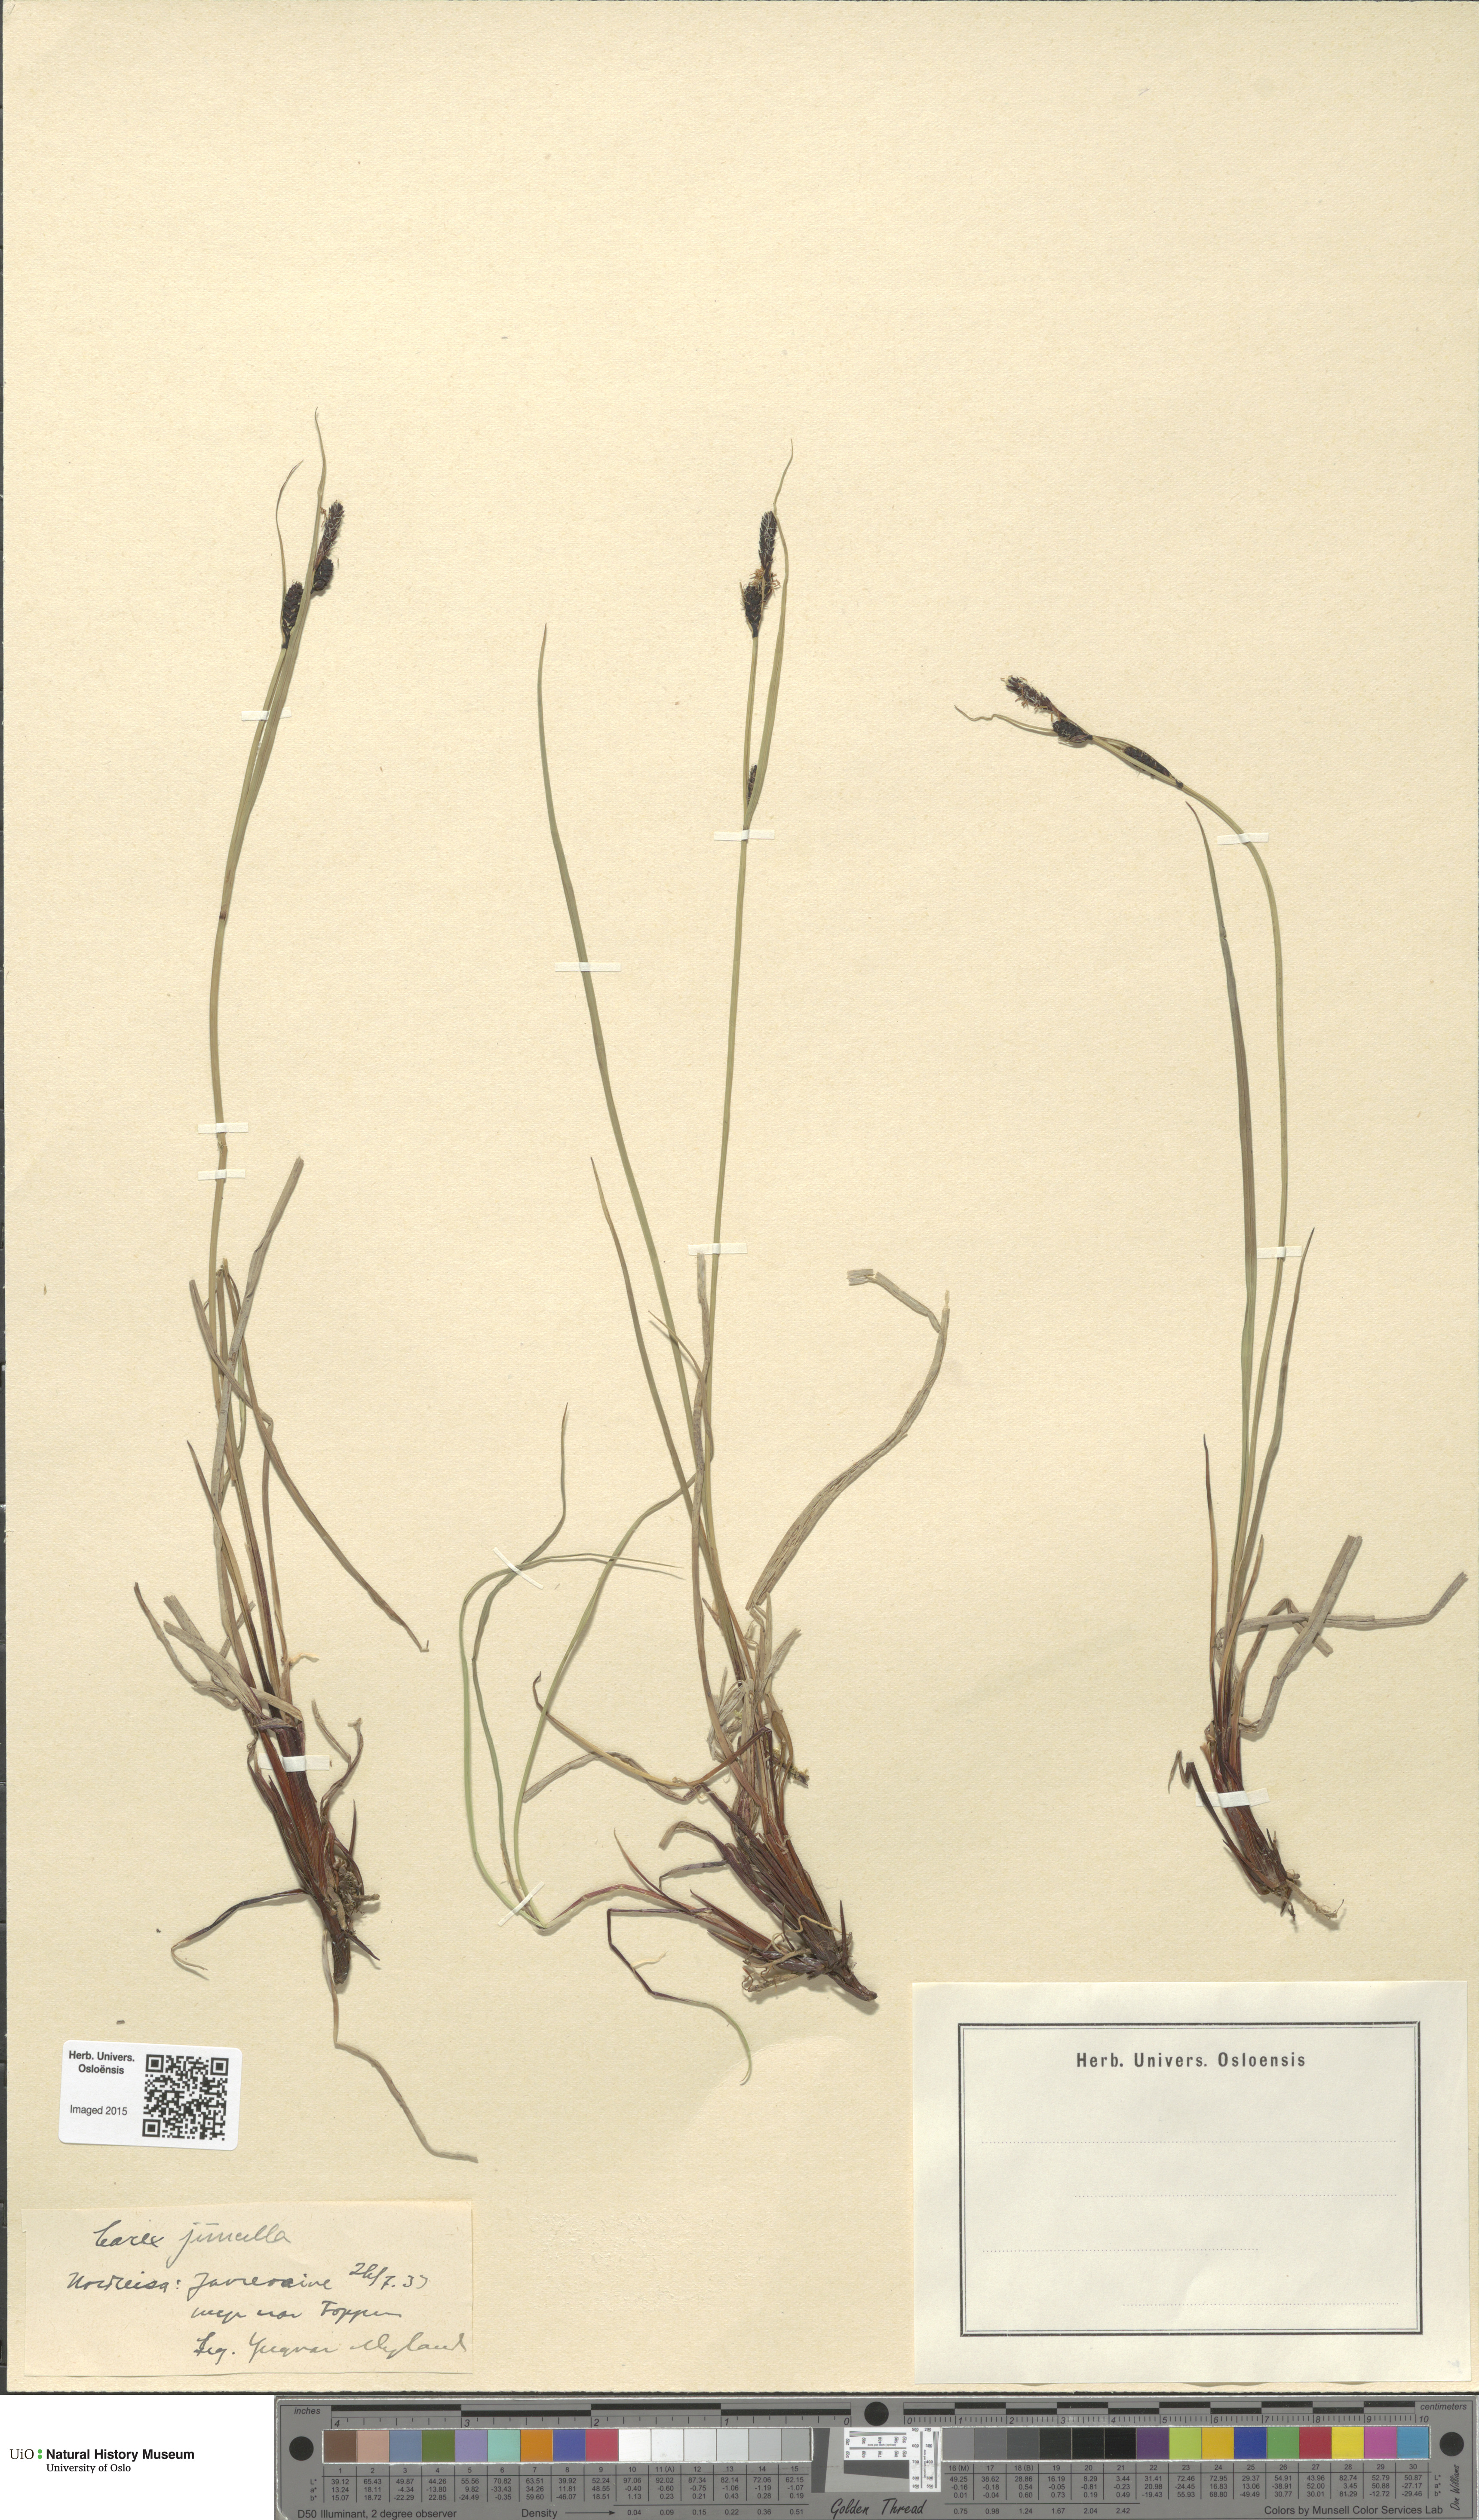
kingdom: Plantae
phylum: Tracheophyta
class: Liliopsida
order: Poales
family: Cyperaceae
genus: Carex
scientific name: Carex nigra
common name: Common sedge
